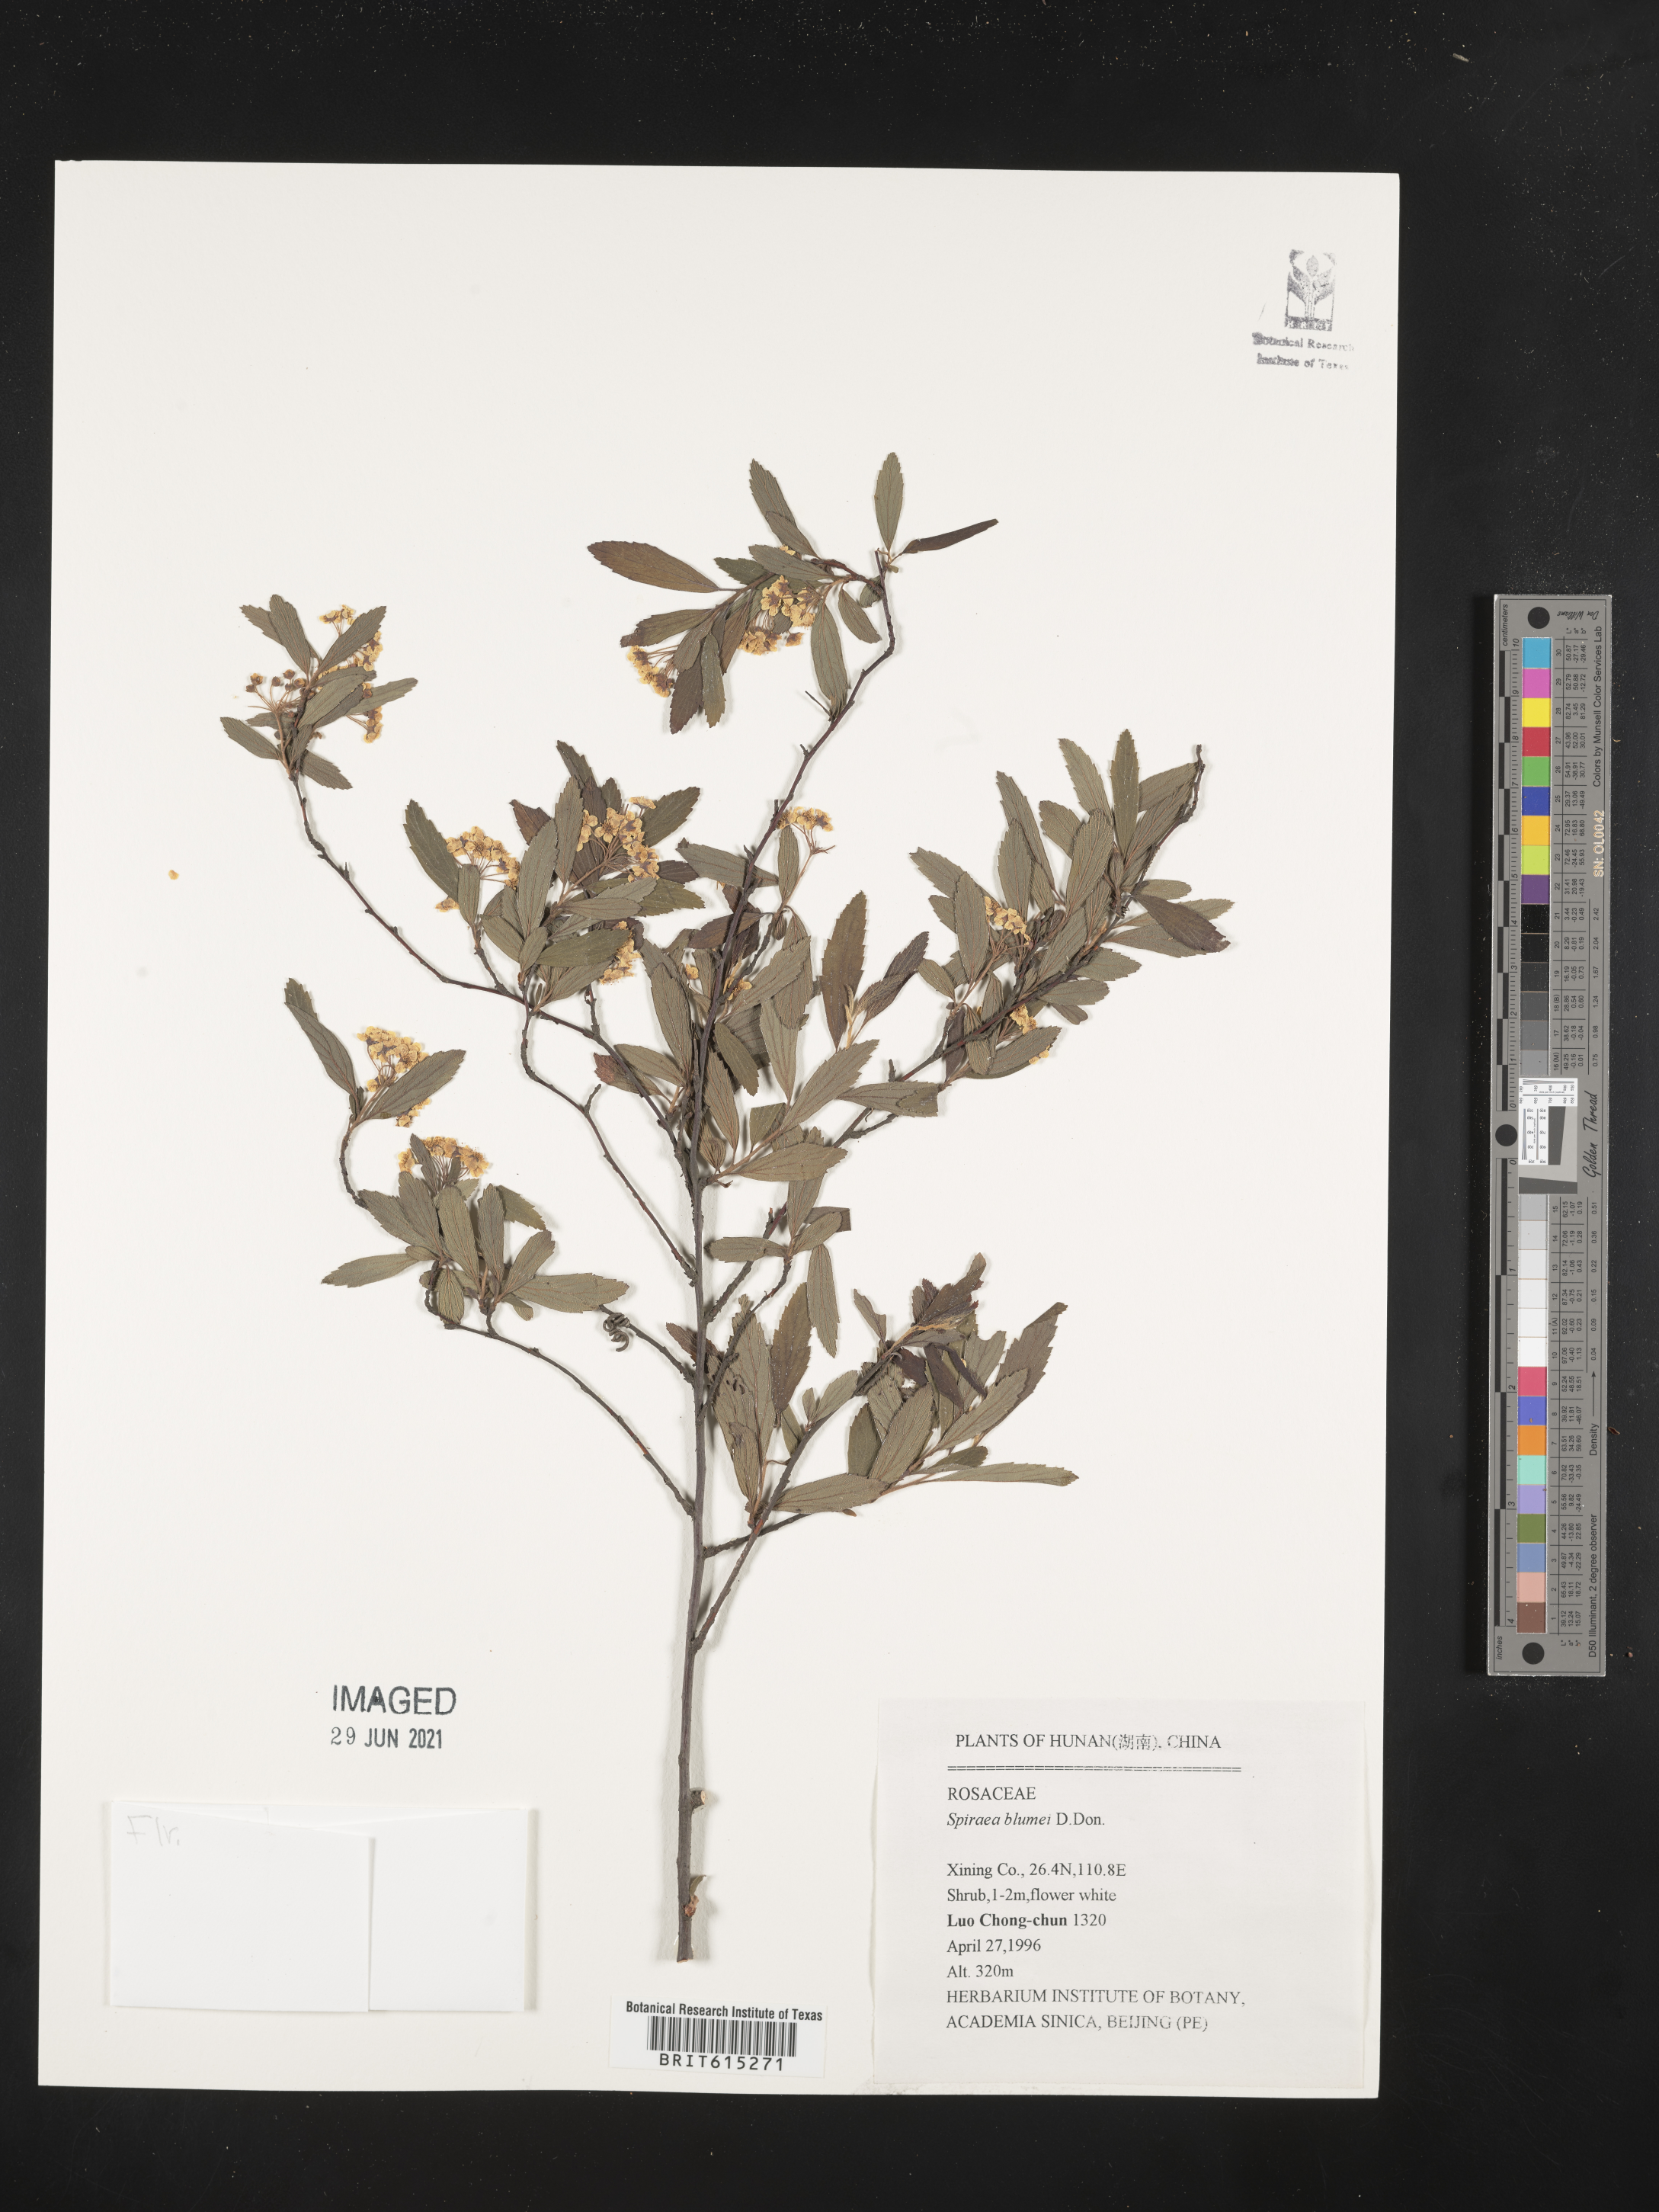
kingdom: Plantae
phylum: Tracheophyta
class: Magnoliopsida
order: Rosales
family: Rosaceae
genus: Spiraea
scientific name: Spiraea blumei
